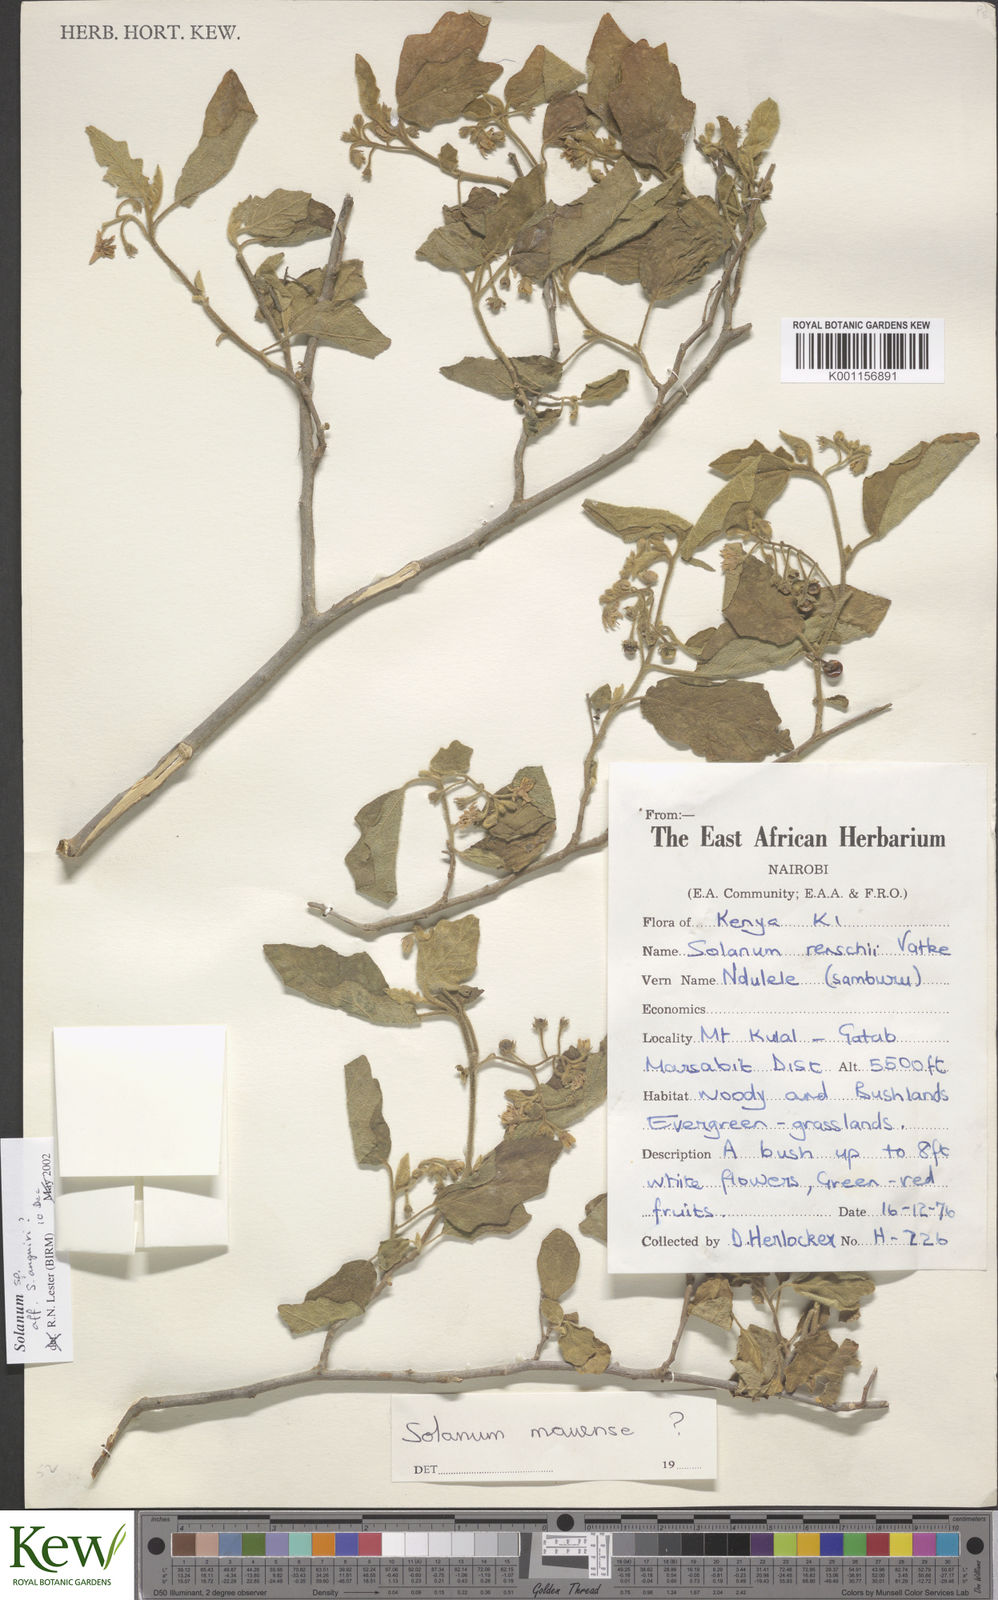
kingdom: Plantae
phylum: Tracheophyta
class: Magnoliopsida
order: Solanales
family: Solanaceae
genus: Solanum
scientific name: Solanum anguivi
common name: Forest bitterberry
